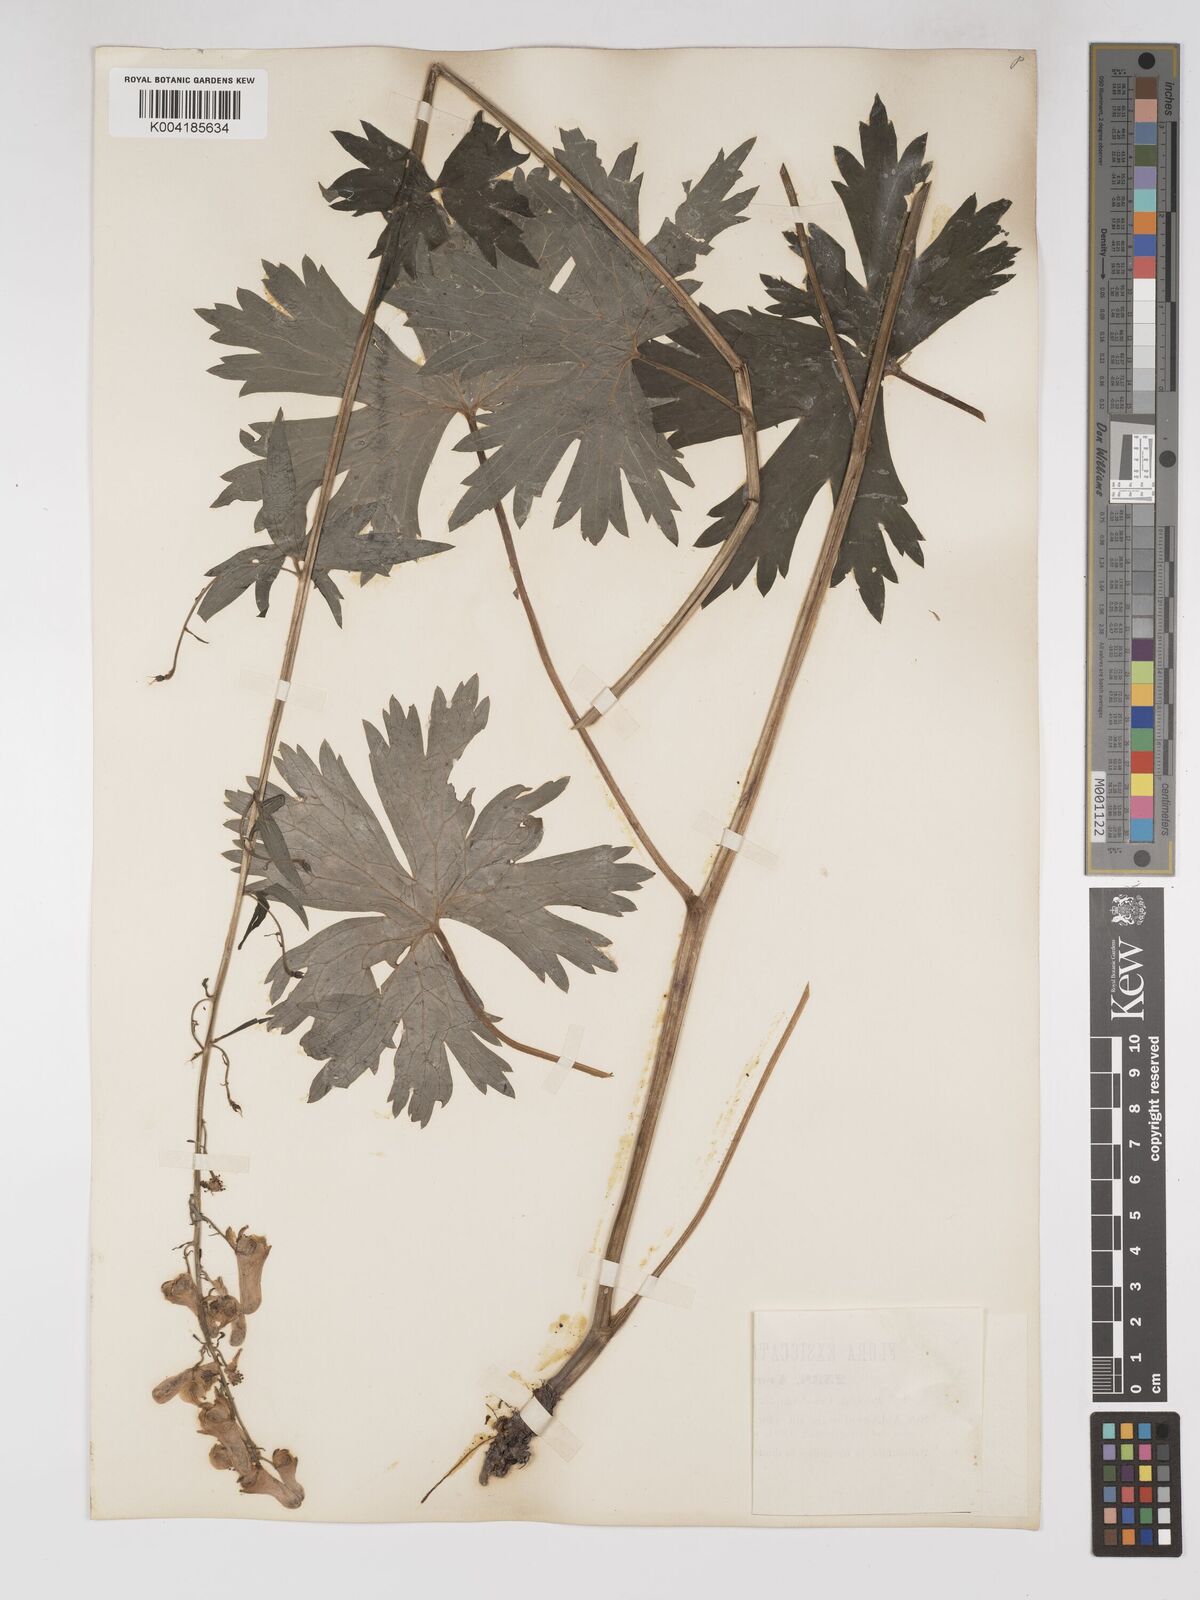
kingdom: Plantae
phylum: Tracheophyta
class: Magnoliopsida
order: Ranunculales
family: Ranunculaceae
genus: Aconitum
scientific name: Aconitum lycoctonum
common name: Wolf's-bane
